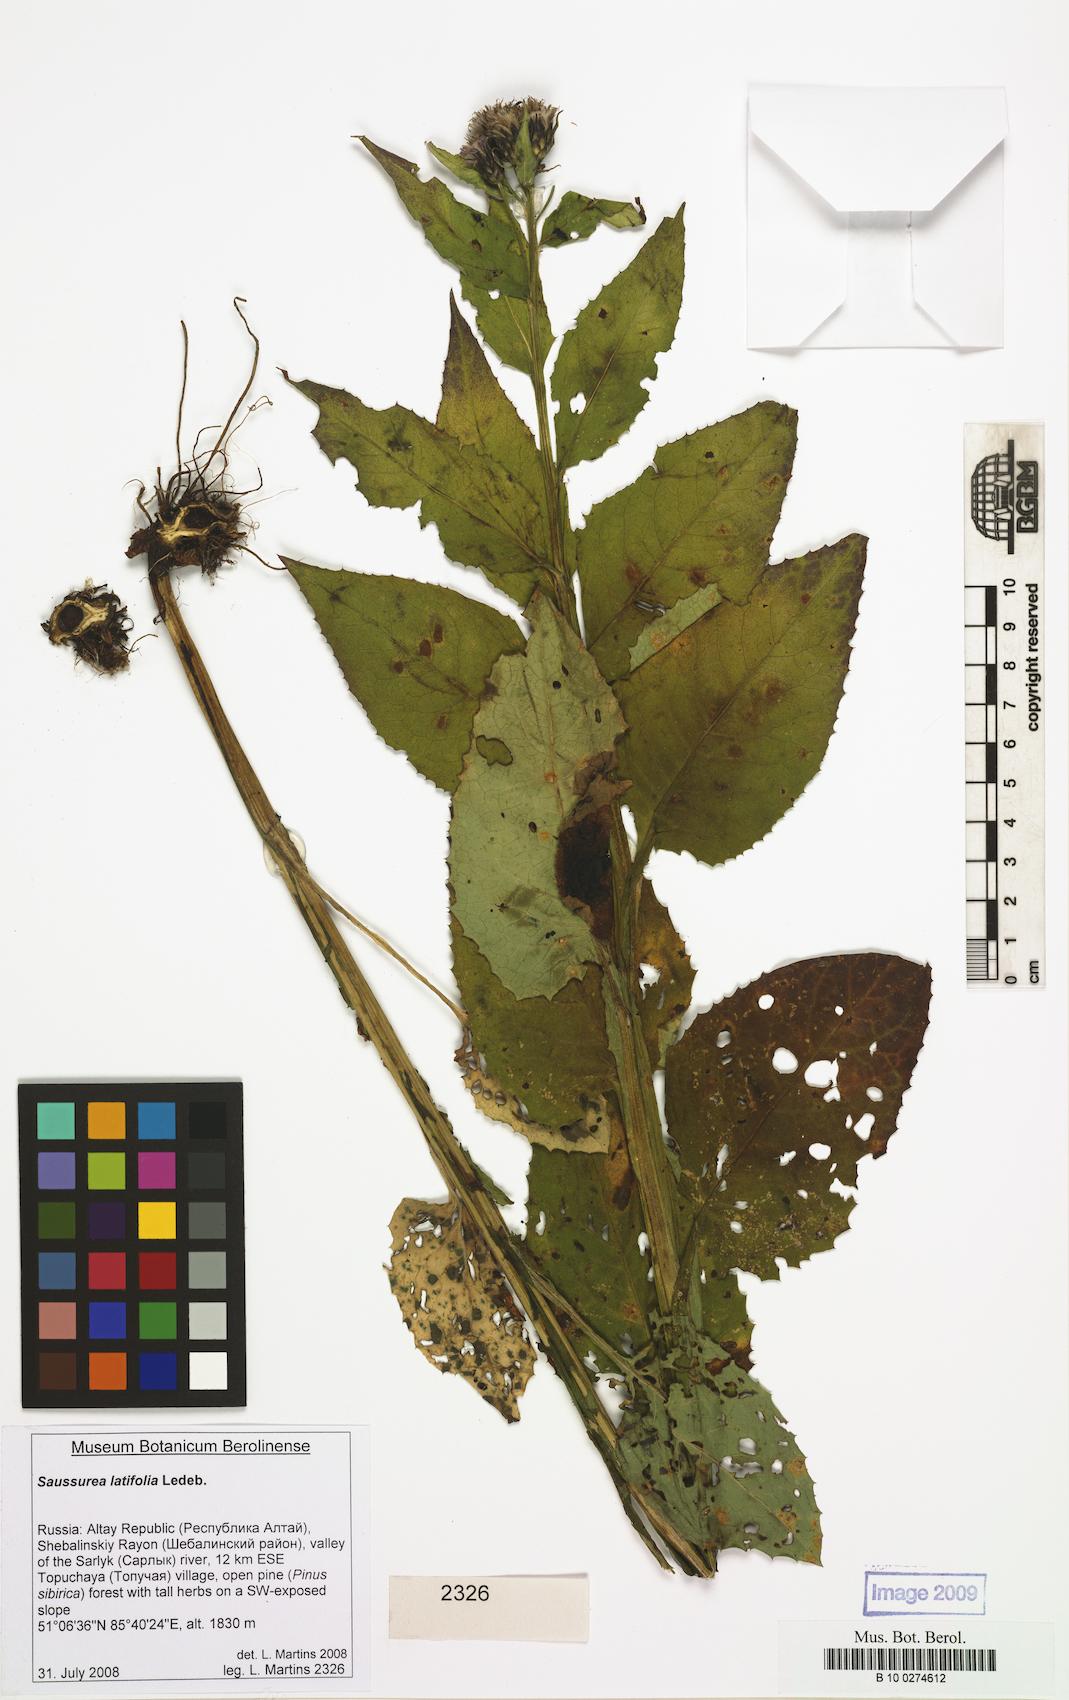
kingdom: Plantae
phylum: Tracheophyta
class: Magnoliopsida
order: Asterales
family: Asteraceae
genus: Saussurea
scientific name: Saussurea latifolia
